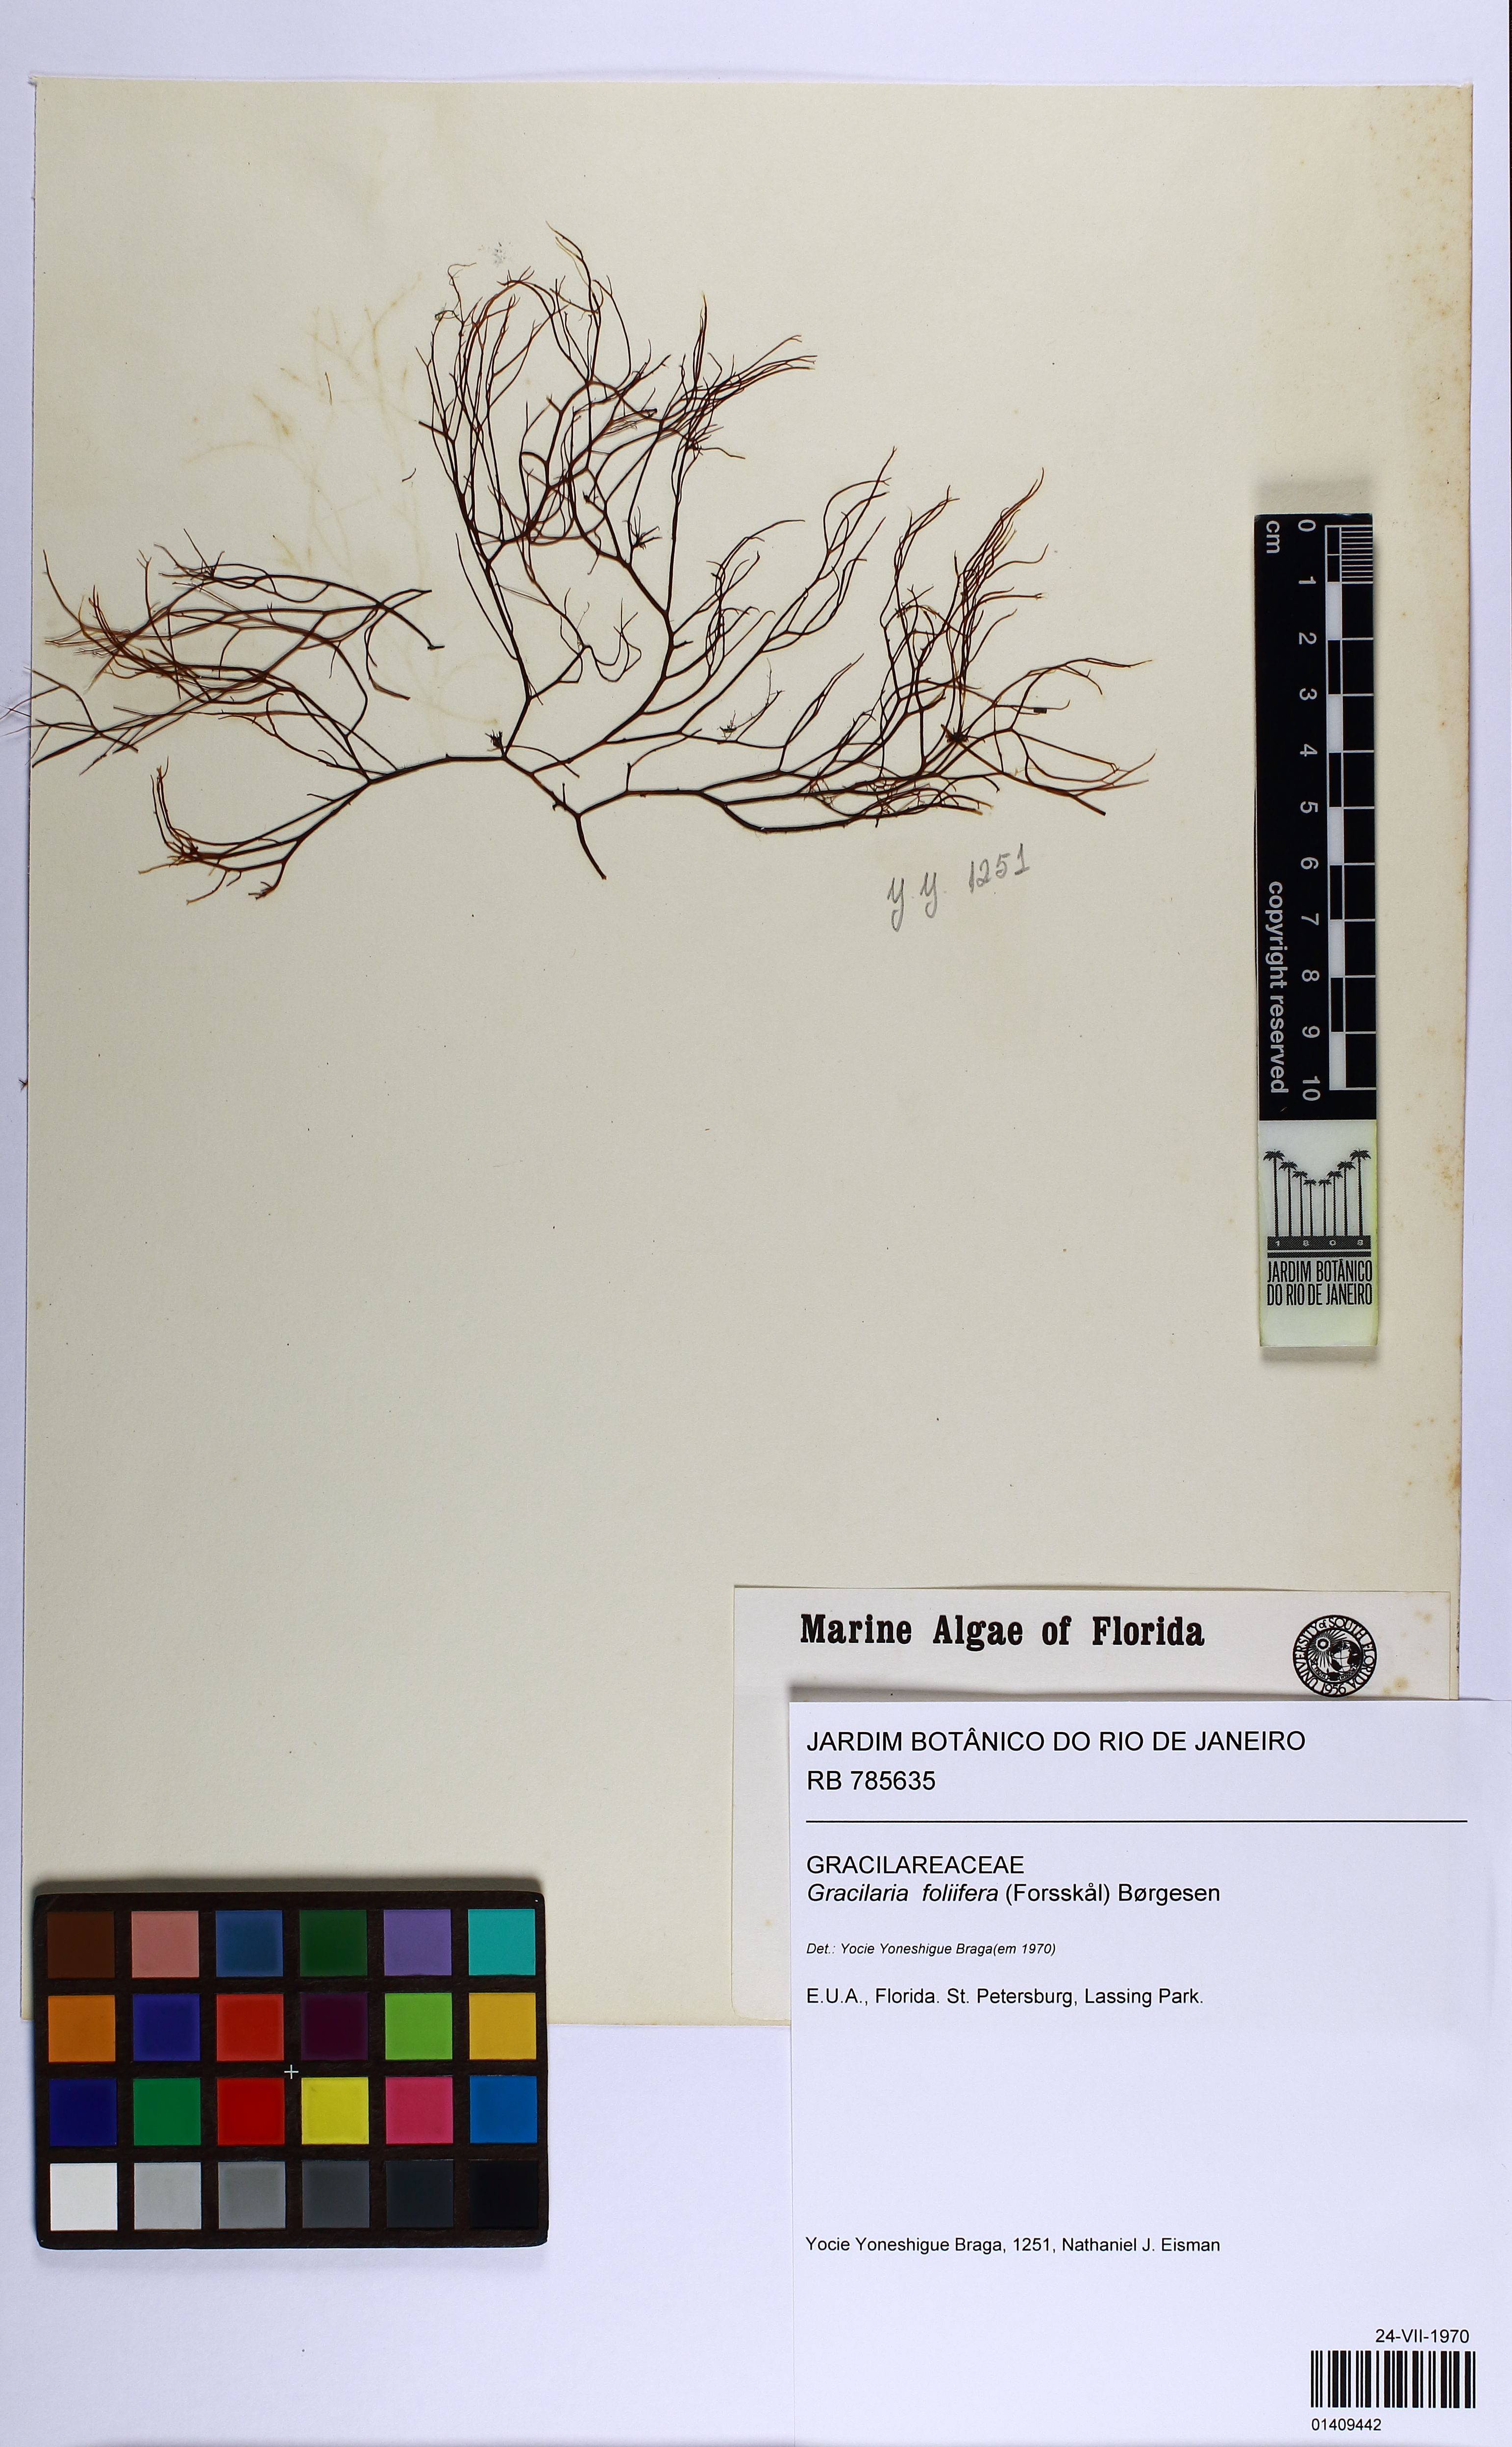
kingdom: Plantae
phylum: Rhodophyta
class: Florideophyceae
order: Gracilariales
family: Gracilariaceae
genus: Gracilaria
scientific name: Gracilaria foliifera
